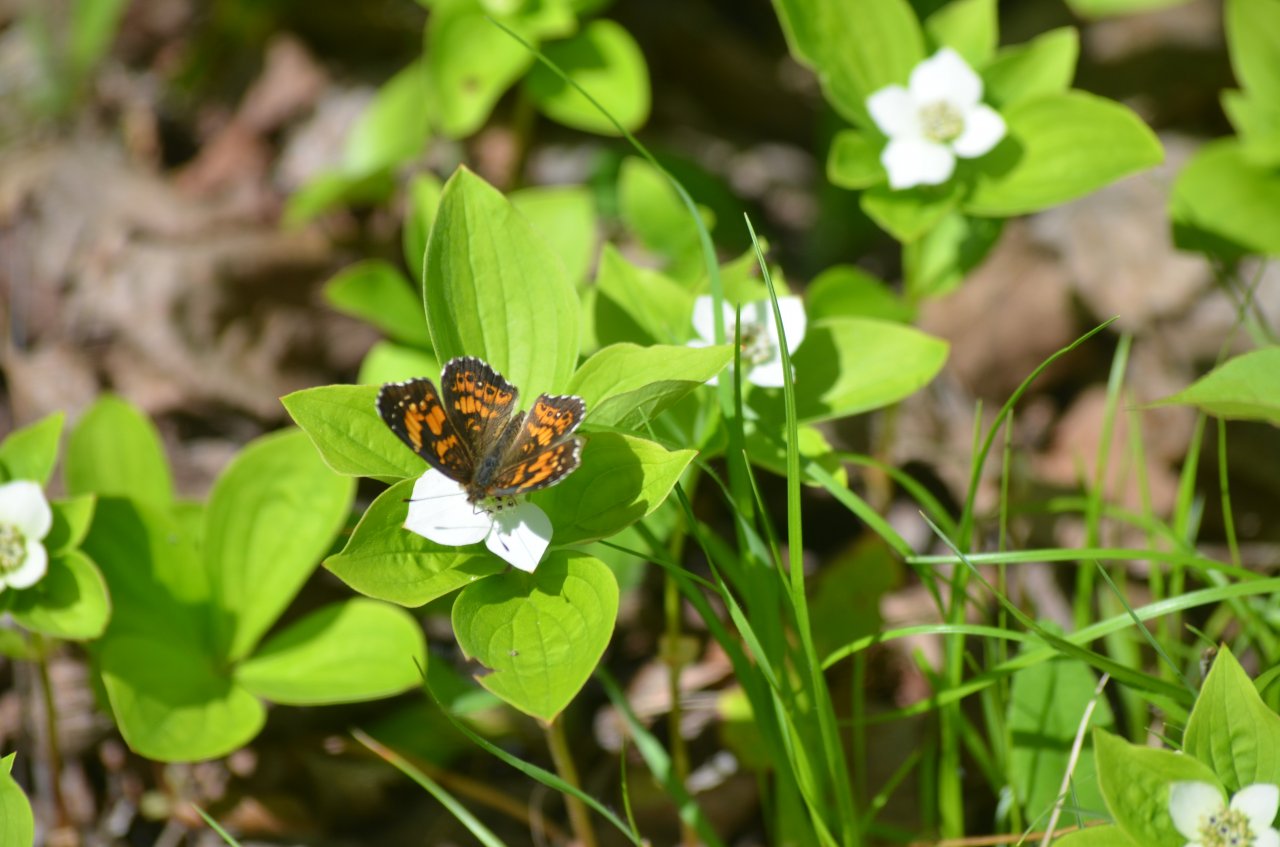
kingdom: Animalia
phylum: Arthropoda
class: Insecta
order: Lepidoptera
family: Nymphalidae
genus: Chlosyne
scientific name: Chlosyne nycteis
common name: Silvery Checkerspot
